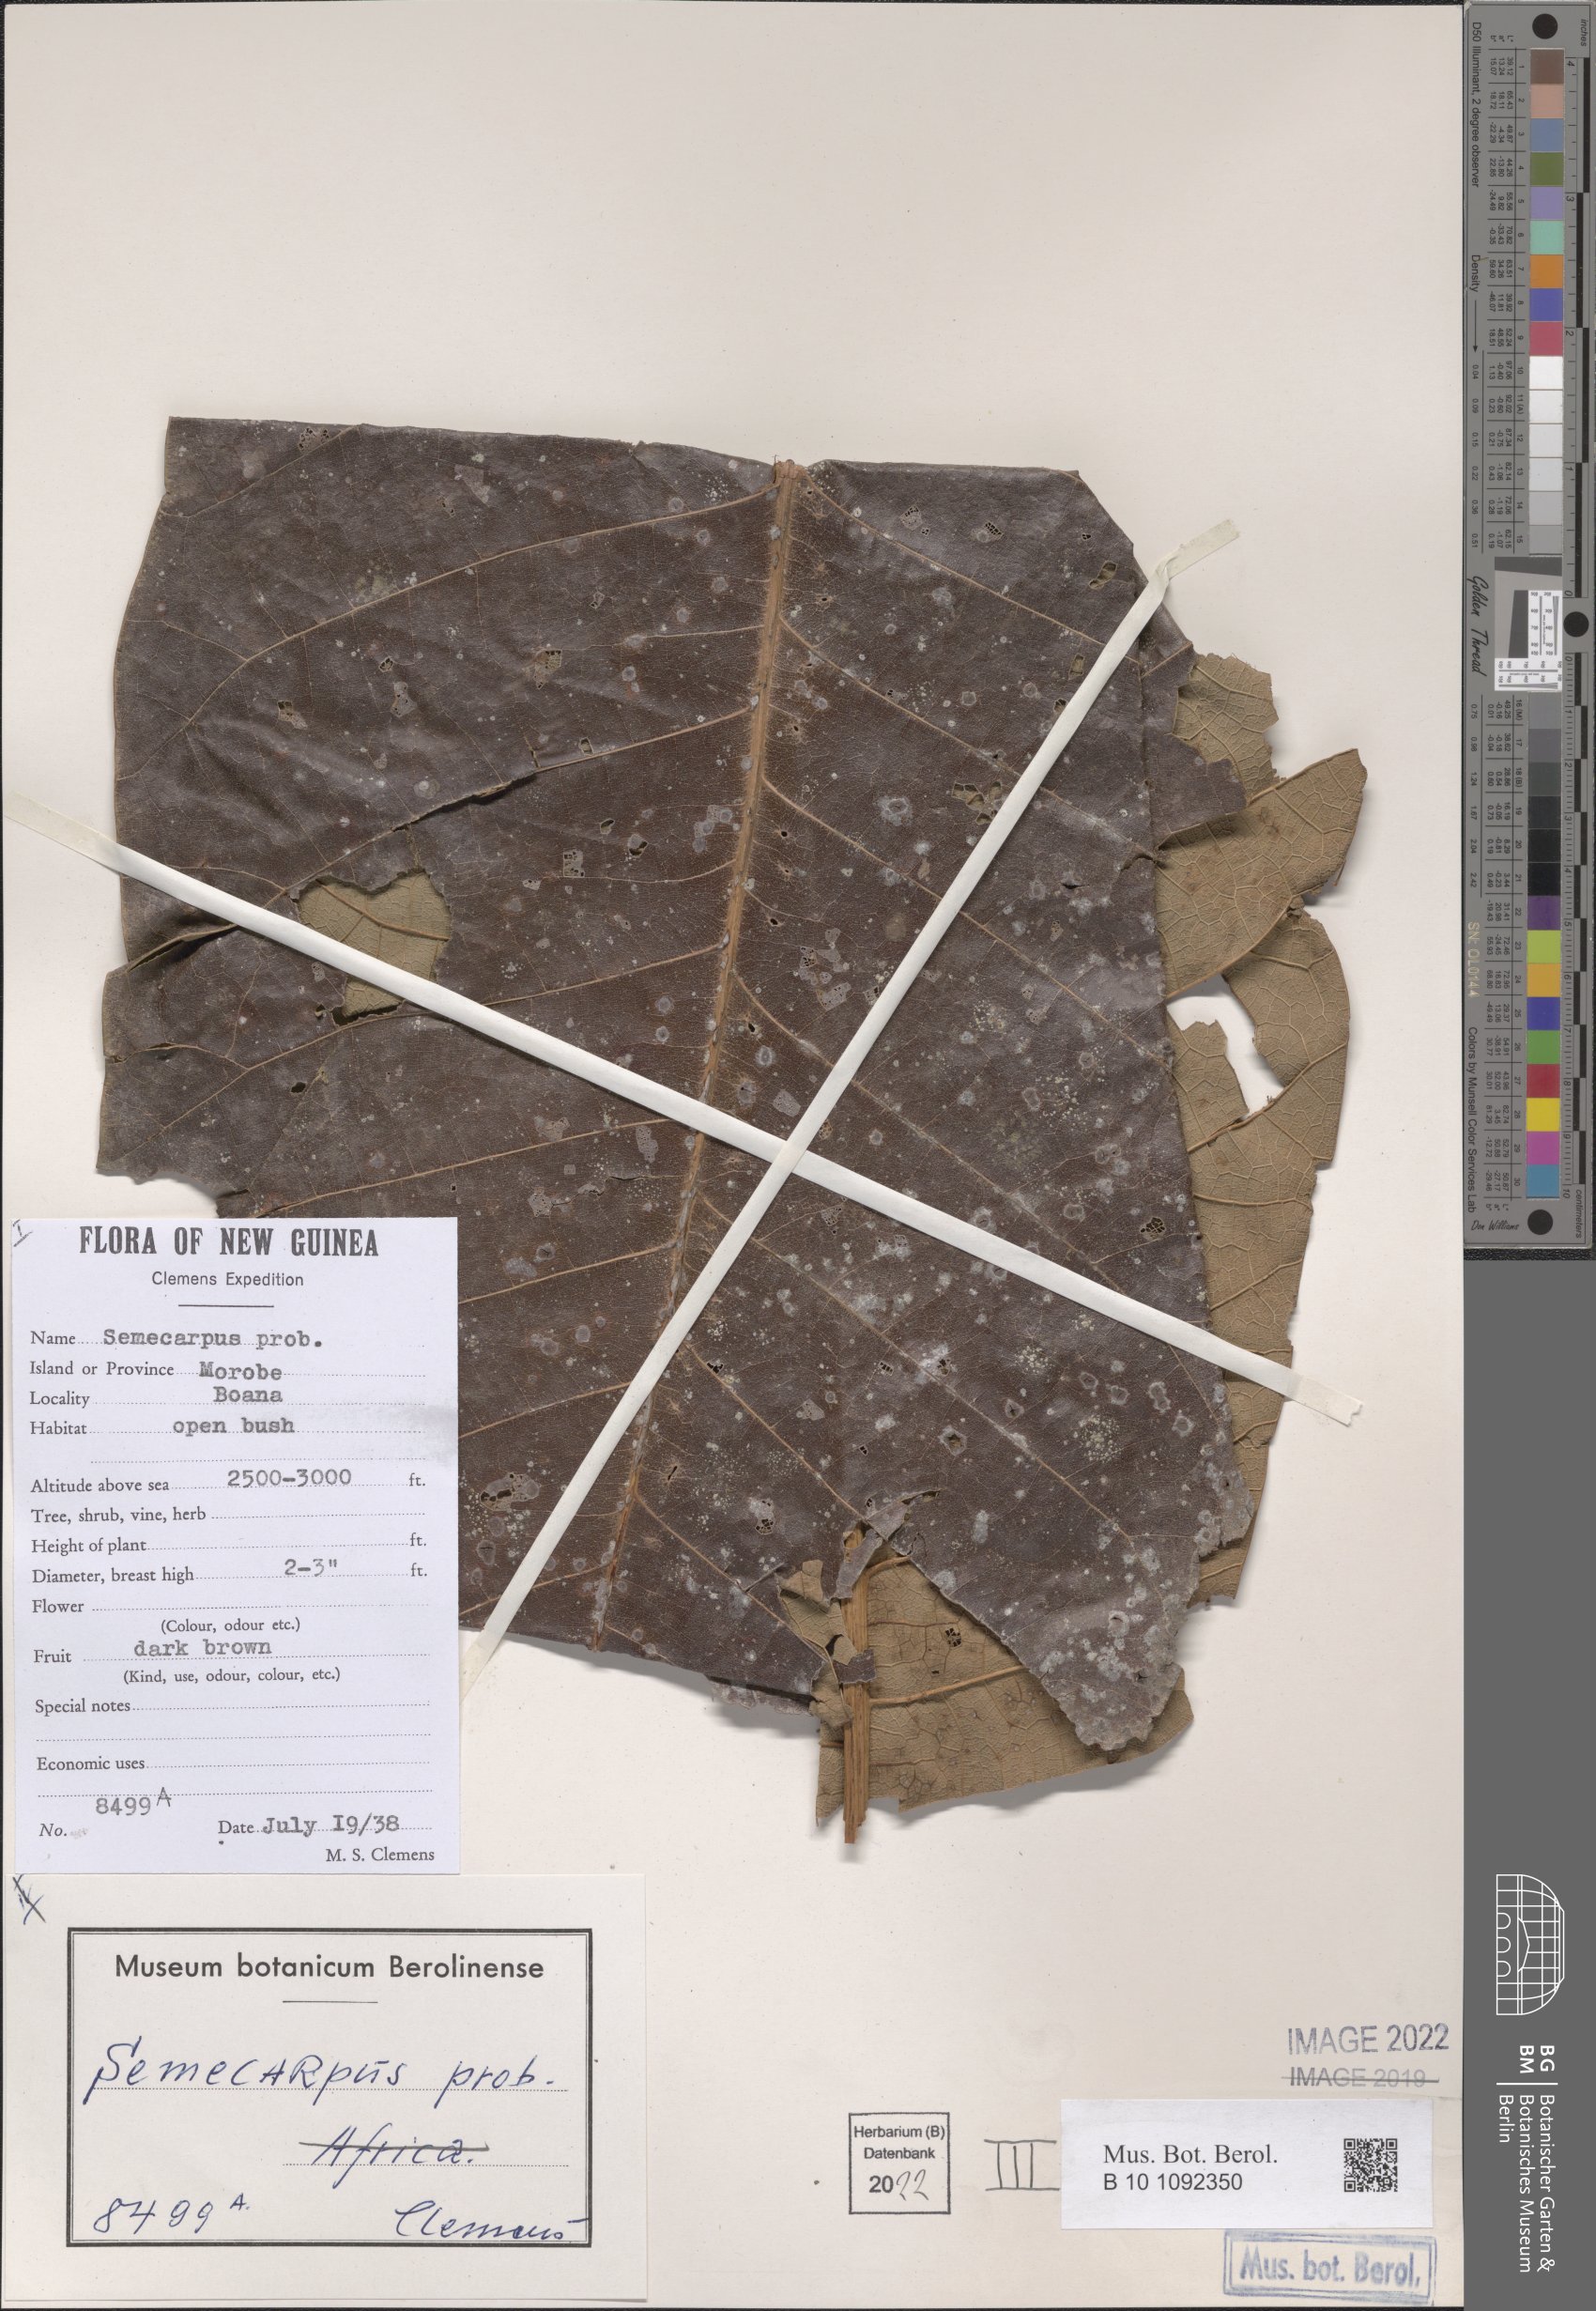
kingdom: Plantae
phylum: Tracheophyta
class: Magnoliopsida
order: Sapindales
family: Anacardiaceae
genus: Semecarpus
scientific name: Semecarpus
